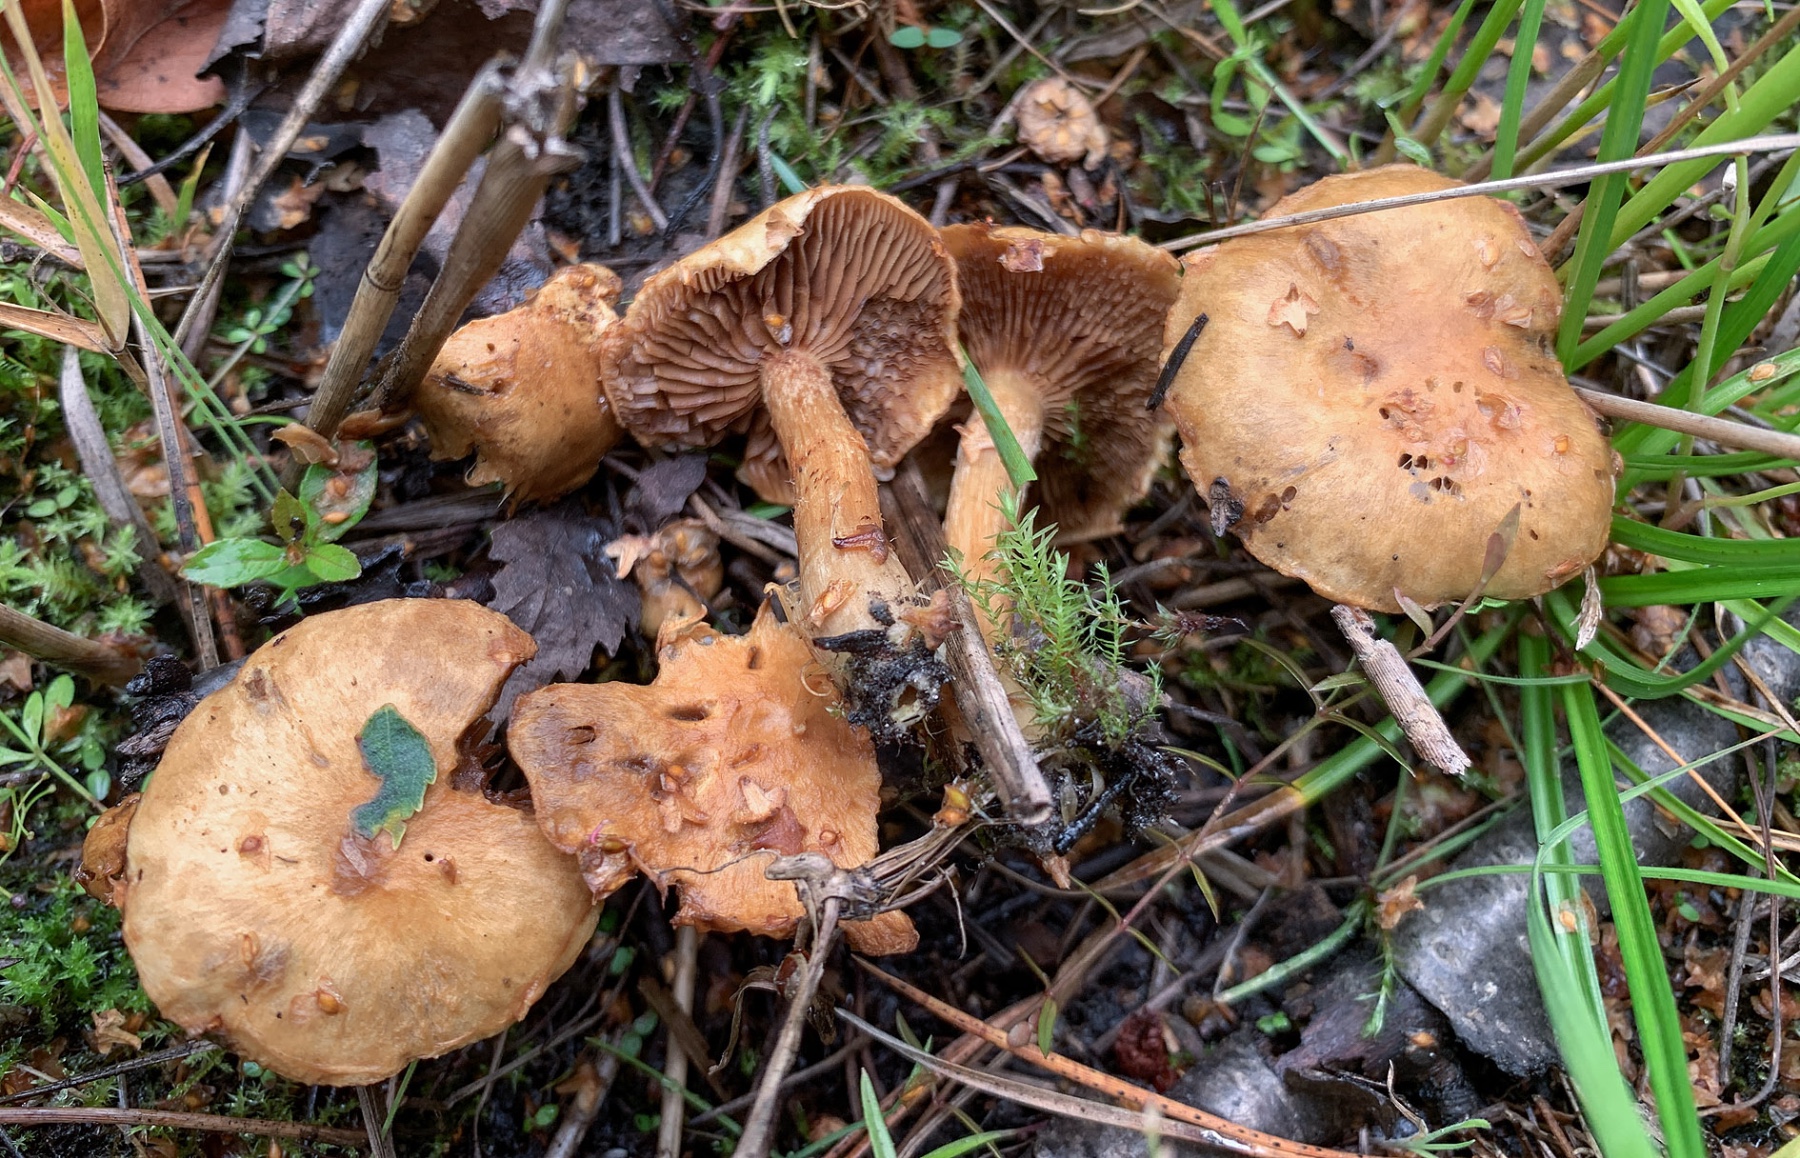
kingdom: Fungi
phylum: Basidiomycota
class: Agaricomycetes
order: Agaricales
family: Inocybaceae
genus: Mallocybe
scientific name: Mallocybe
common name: Trævlhat
